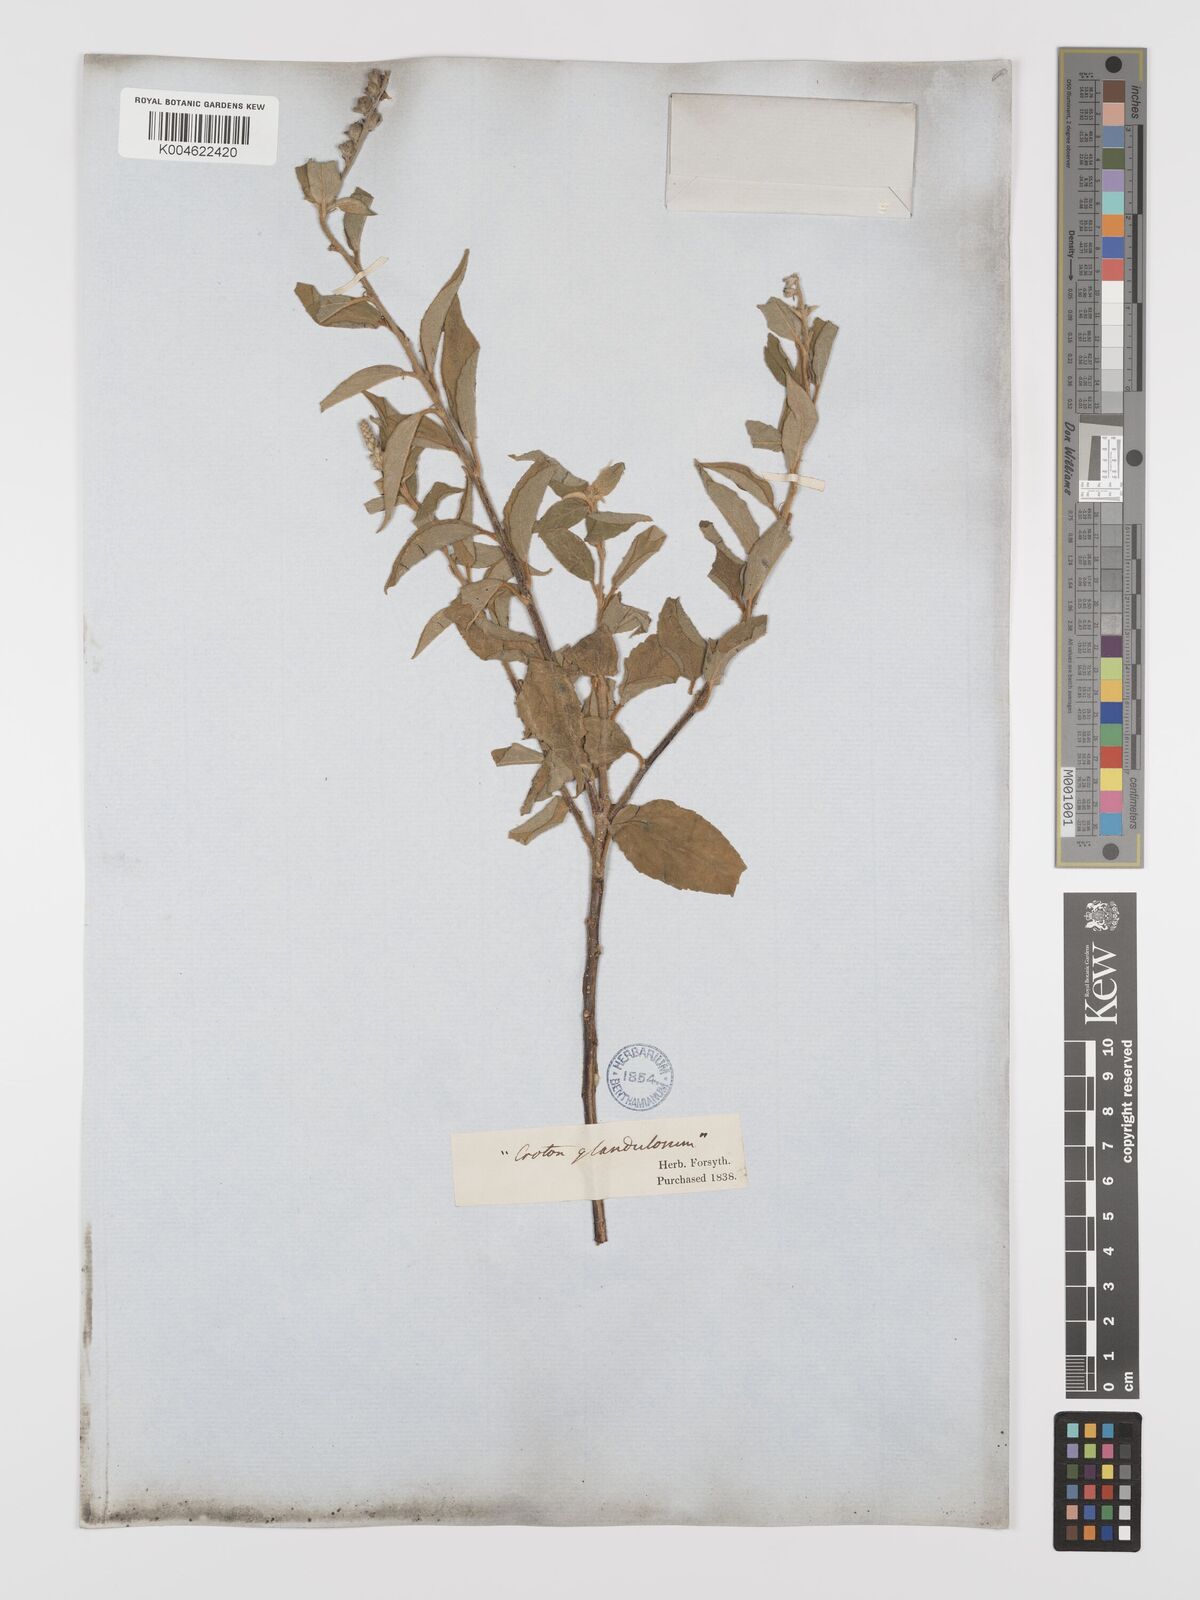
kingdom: Plantae
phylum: Tracheophyta
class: Magnoliopsida
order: Malpighiales
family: Euphorbiaceae
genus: Croton
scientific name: Croton
